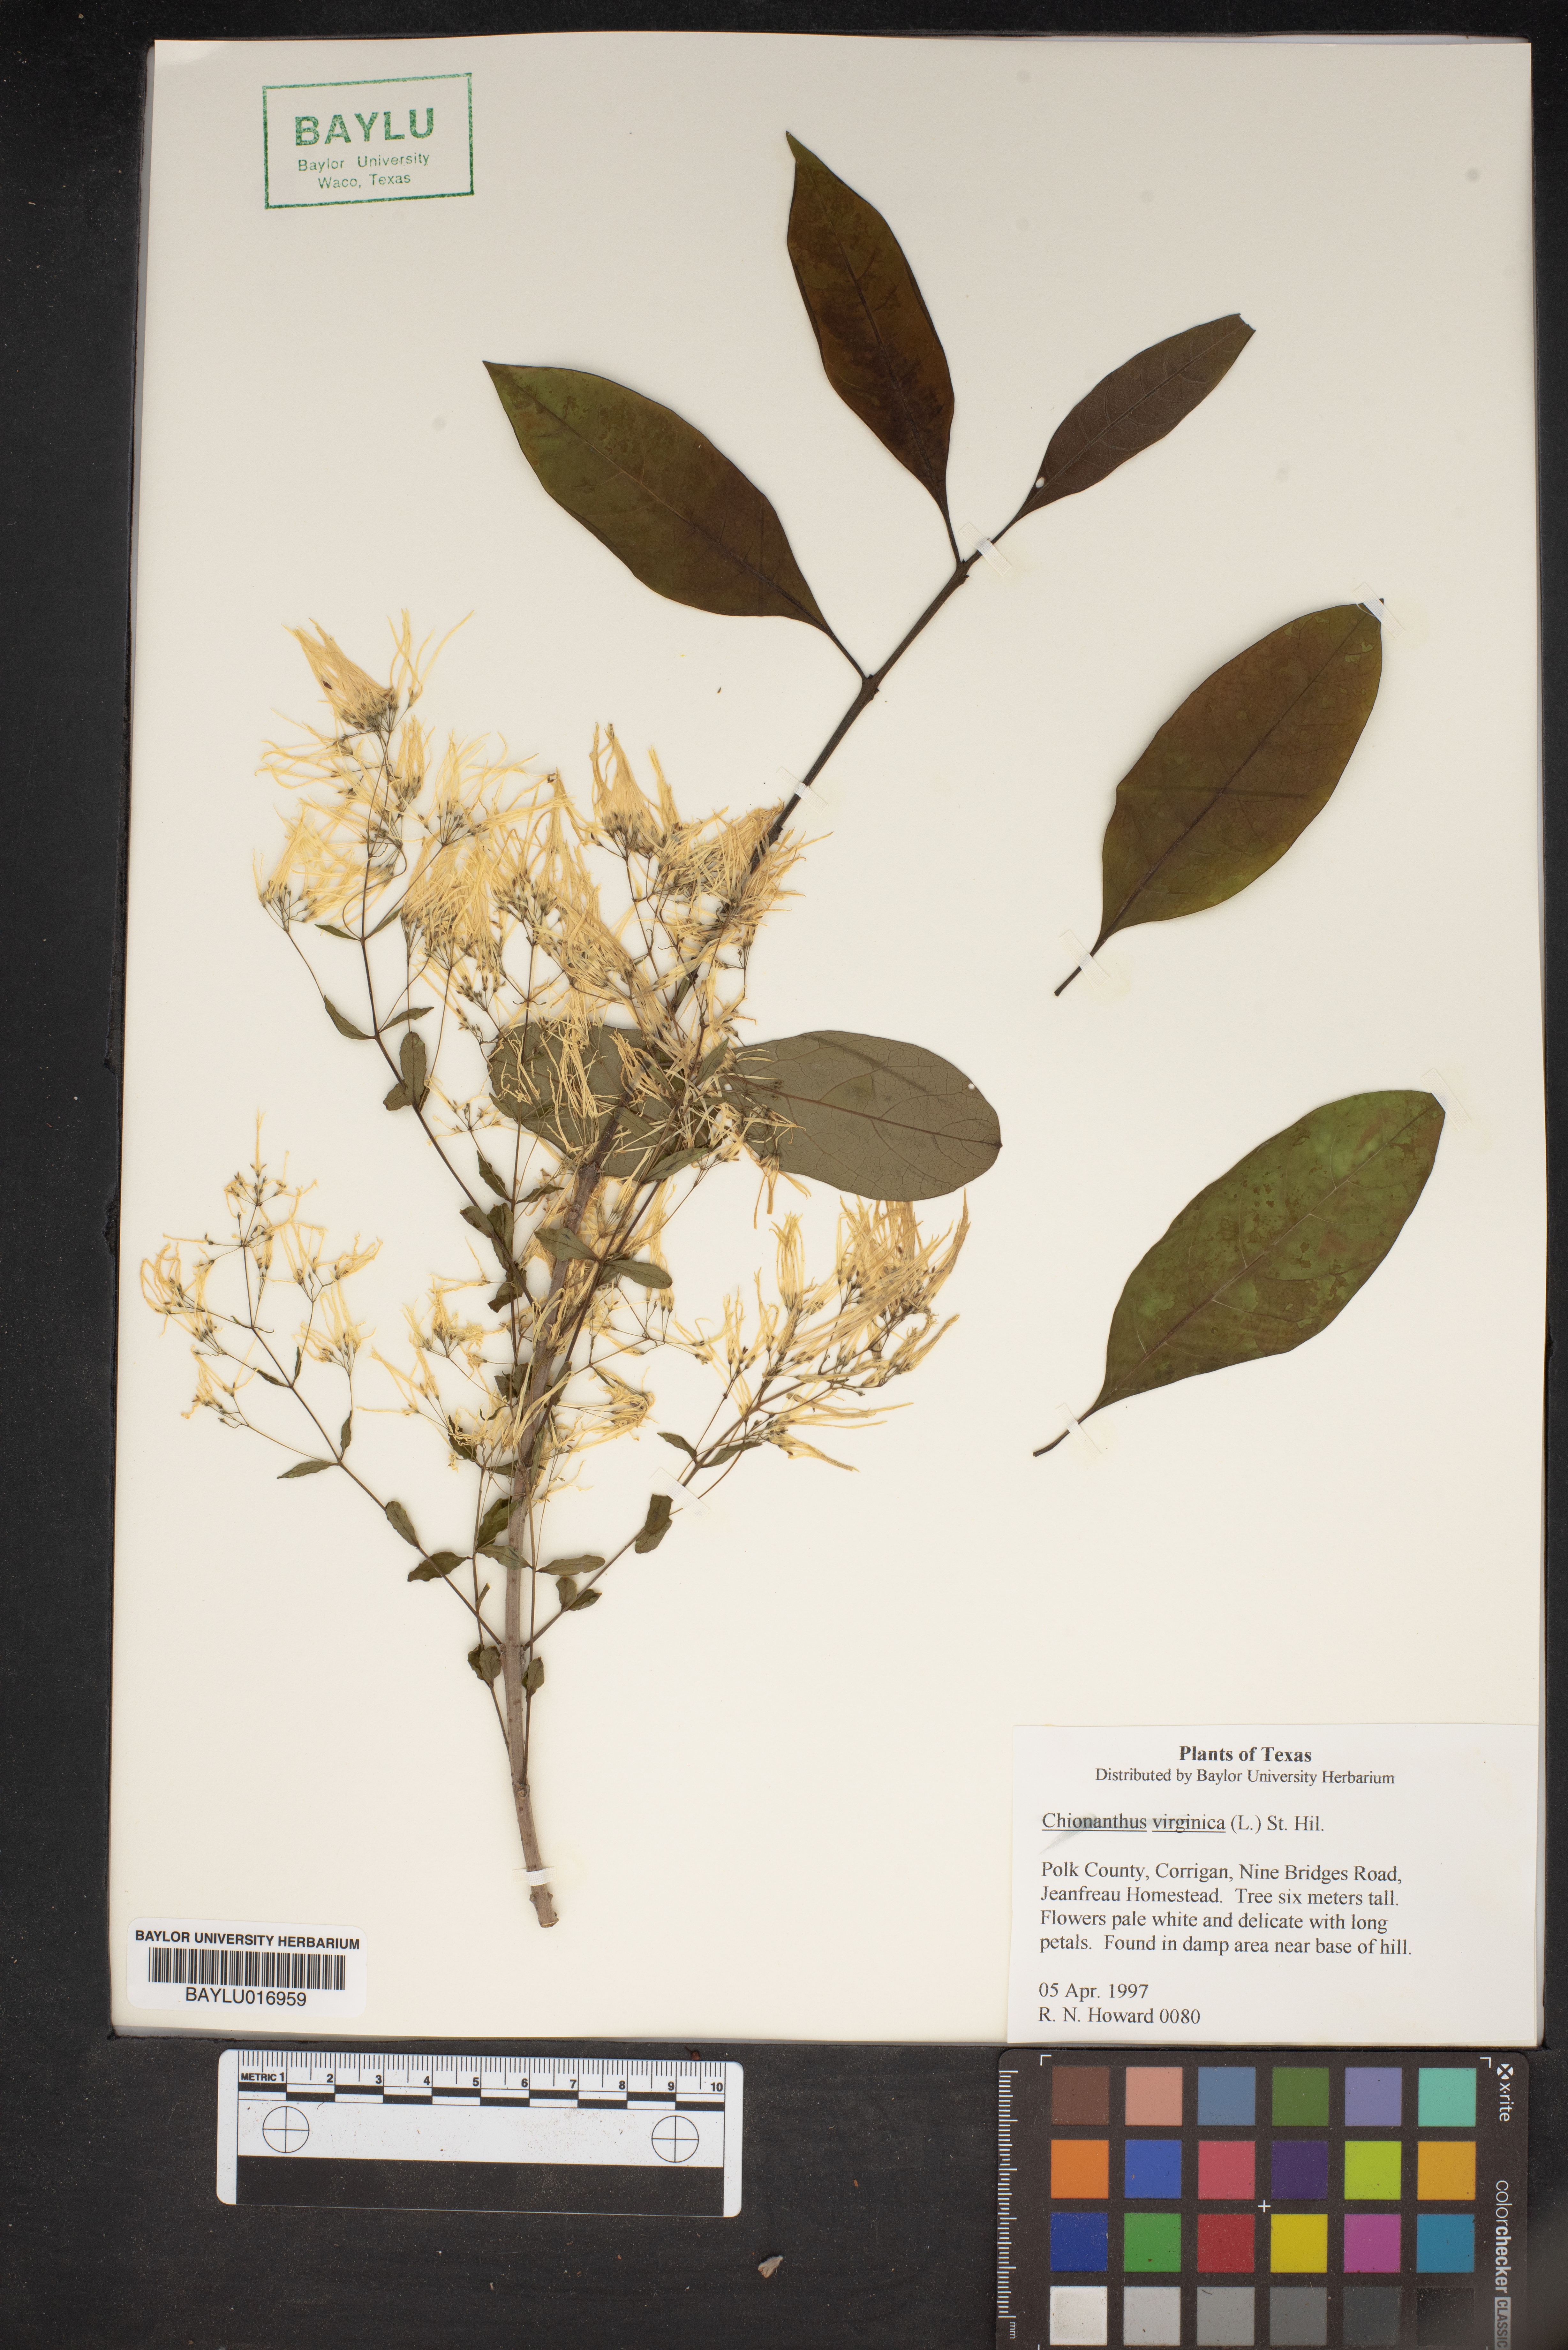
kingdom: Plantae
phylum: Tracheophyta
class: Magnoliopsida
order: Lamiales
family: Oleaceae
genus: Chionanthus
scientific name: Chionanthus virginicus
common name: American fringetree
